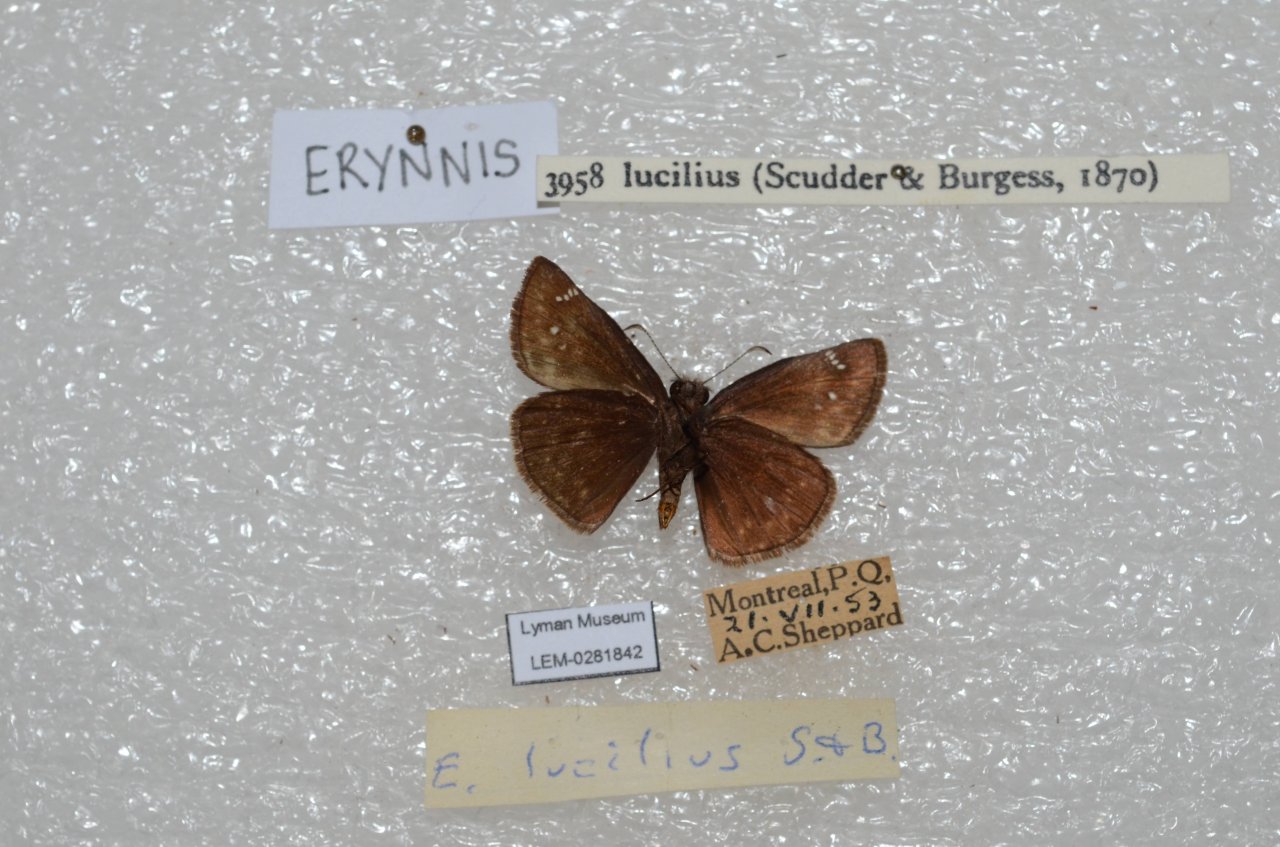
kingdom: Animalia
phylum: Arthropoda
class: Insecta
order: Lepidoptera
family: Hesperiidae
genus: Gesta
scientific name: Gesta
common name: Columbine Duskywing
